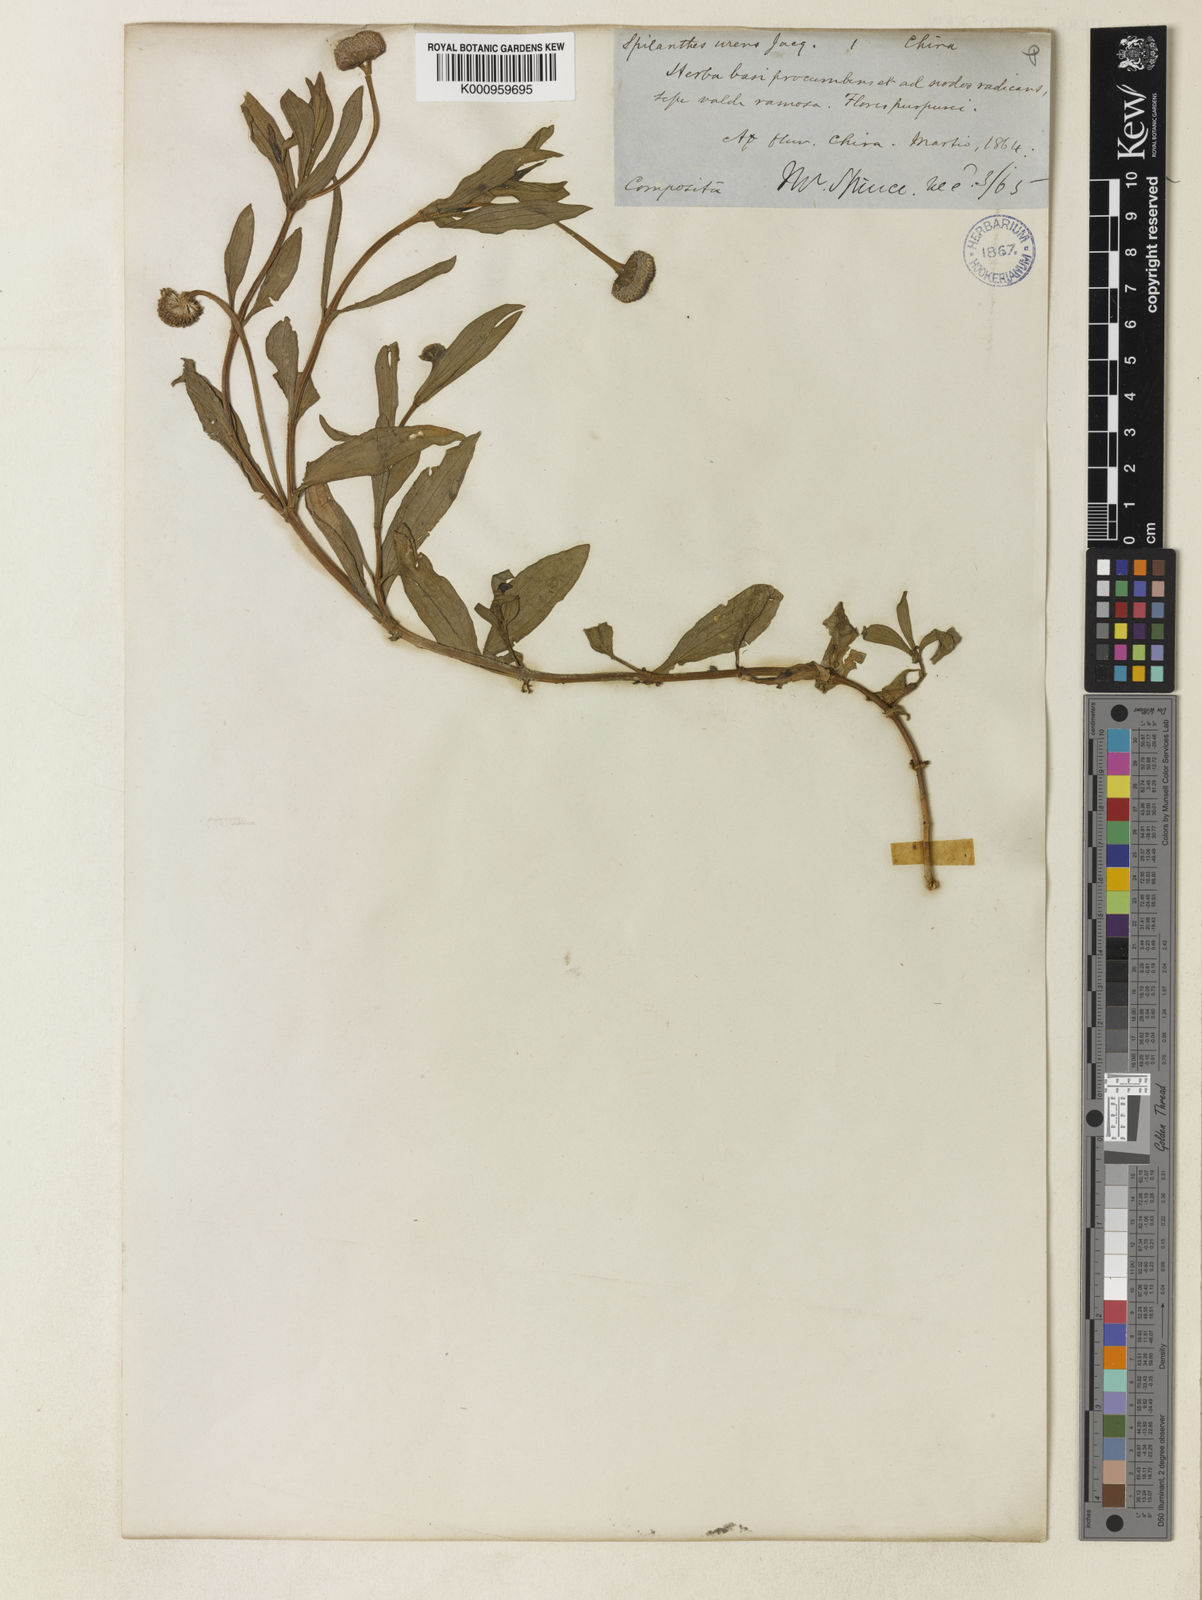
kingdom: Plantae
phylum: Tracheophyta
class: Magnoliopsida
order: Asterales
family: Asteraceae
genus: Spilanthes
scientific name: Spilanthes
